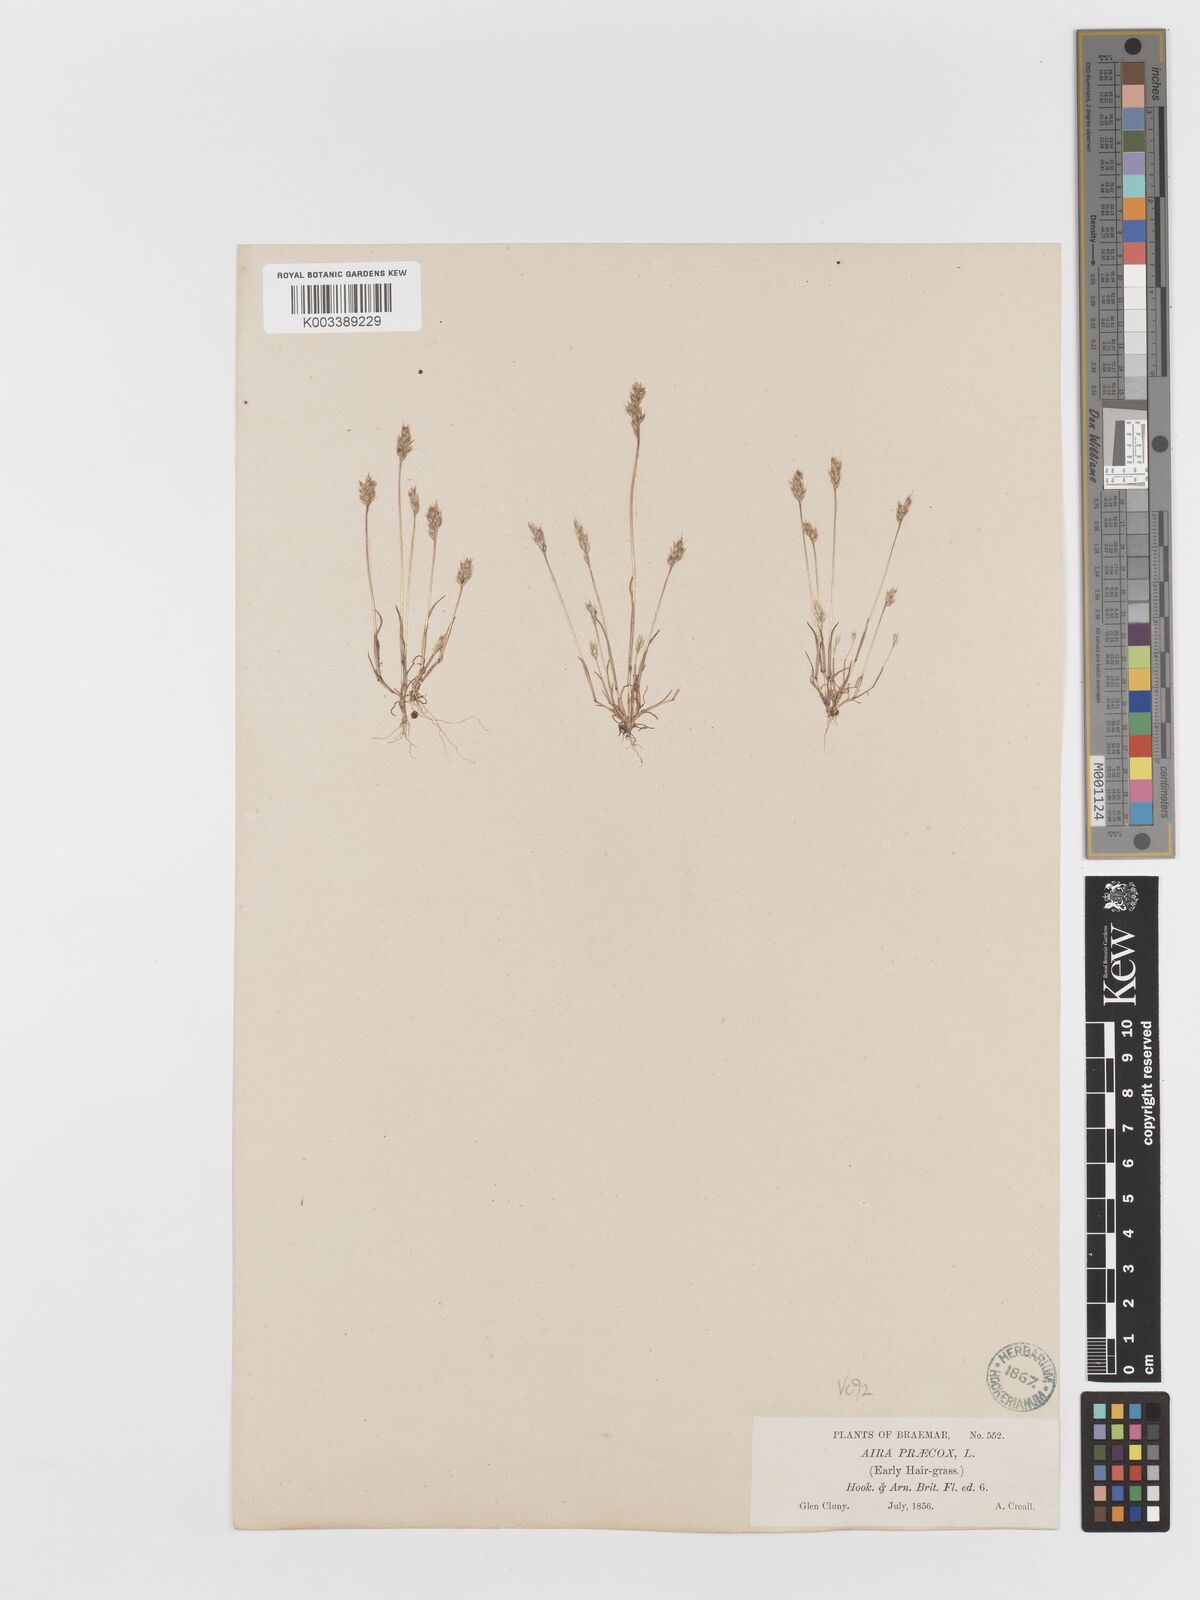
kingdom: Plantae
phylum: Tracheophyta
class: Liliopsida
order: Poales
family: Poaceae
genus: Aira
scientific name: Aira praecox
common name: Early hair-grass
